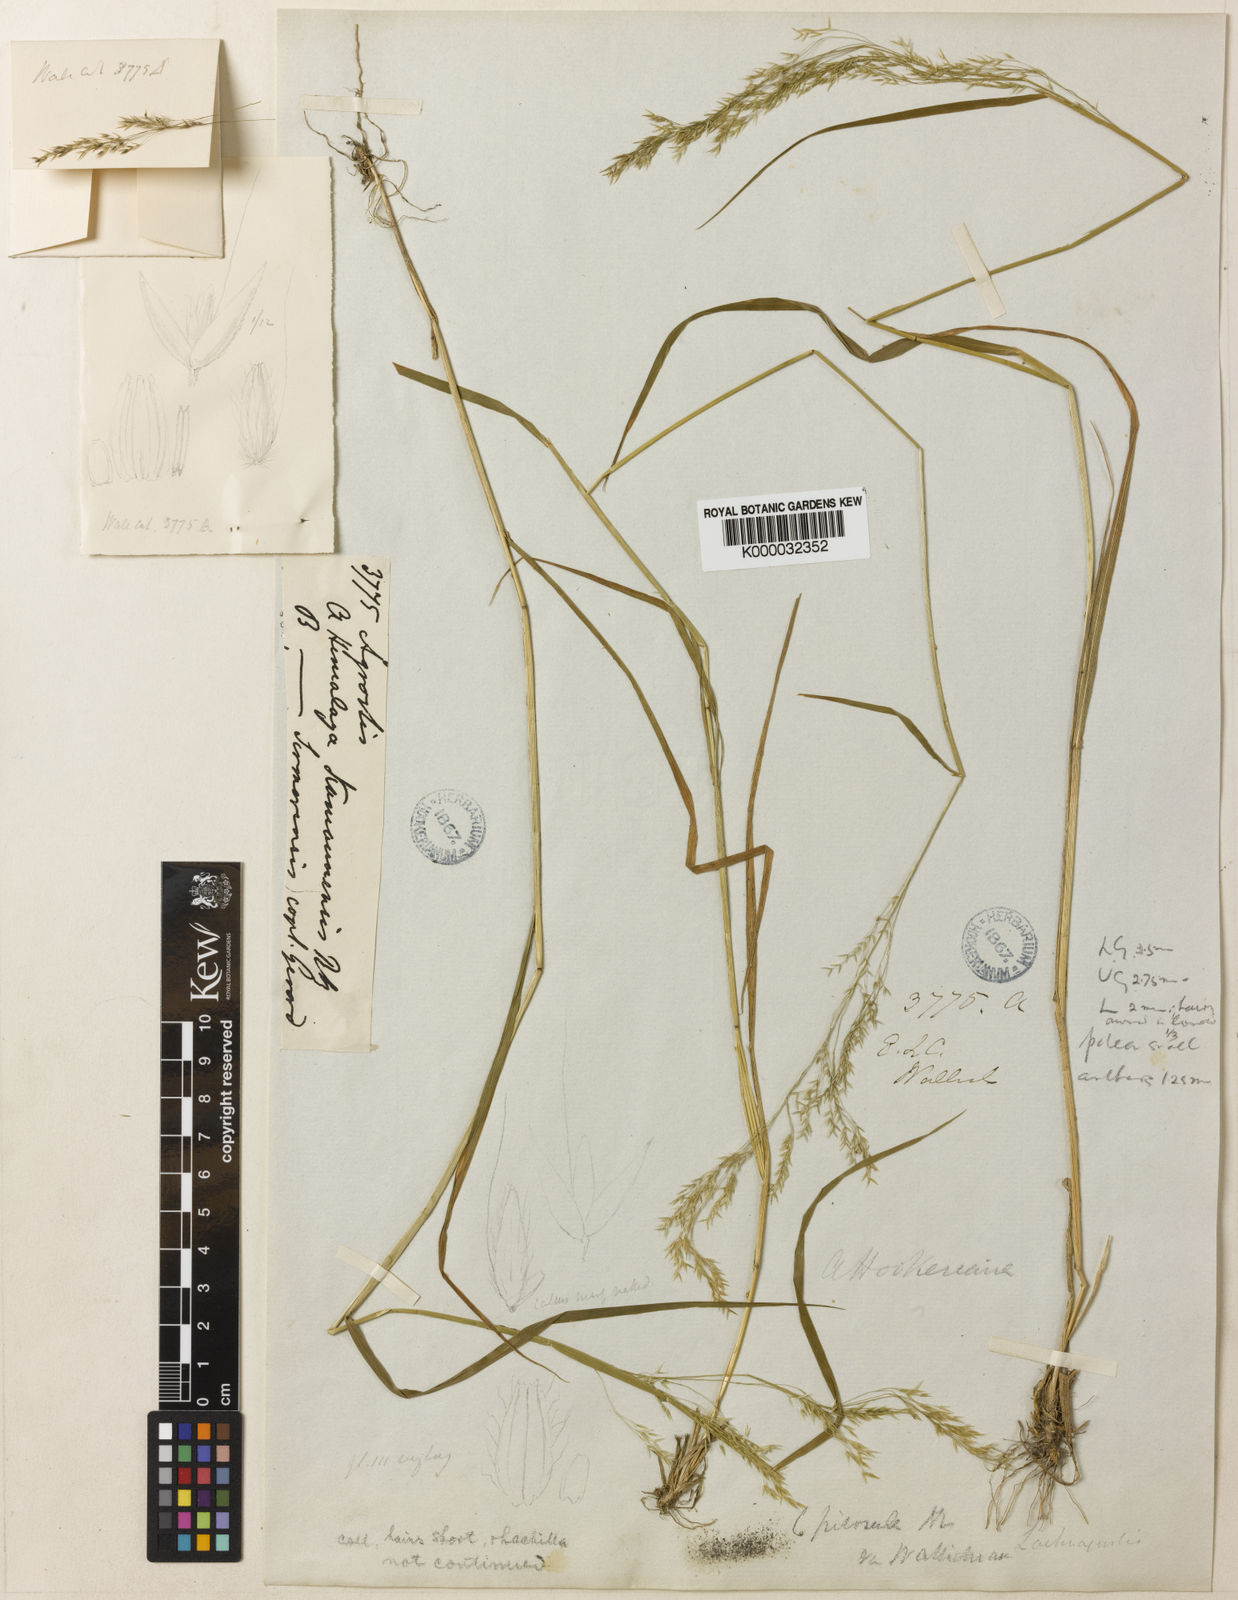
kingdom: Plantae
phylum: Tracheophyta
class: Liliopsida
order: Poales
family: Poaceae
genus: Agrostis
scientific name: Agrostis pilosula
